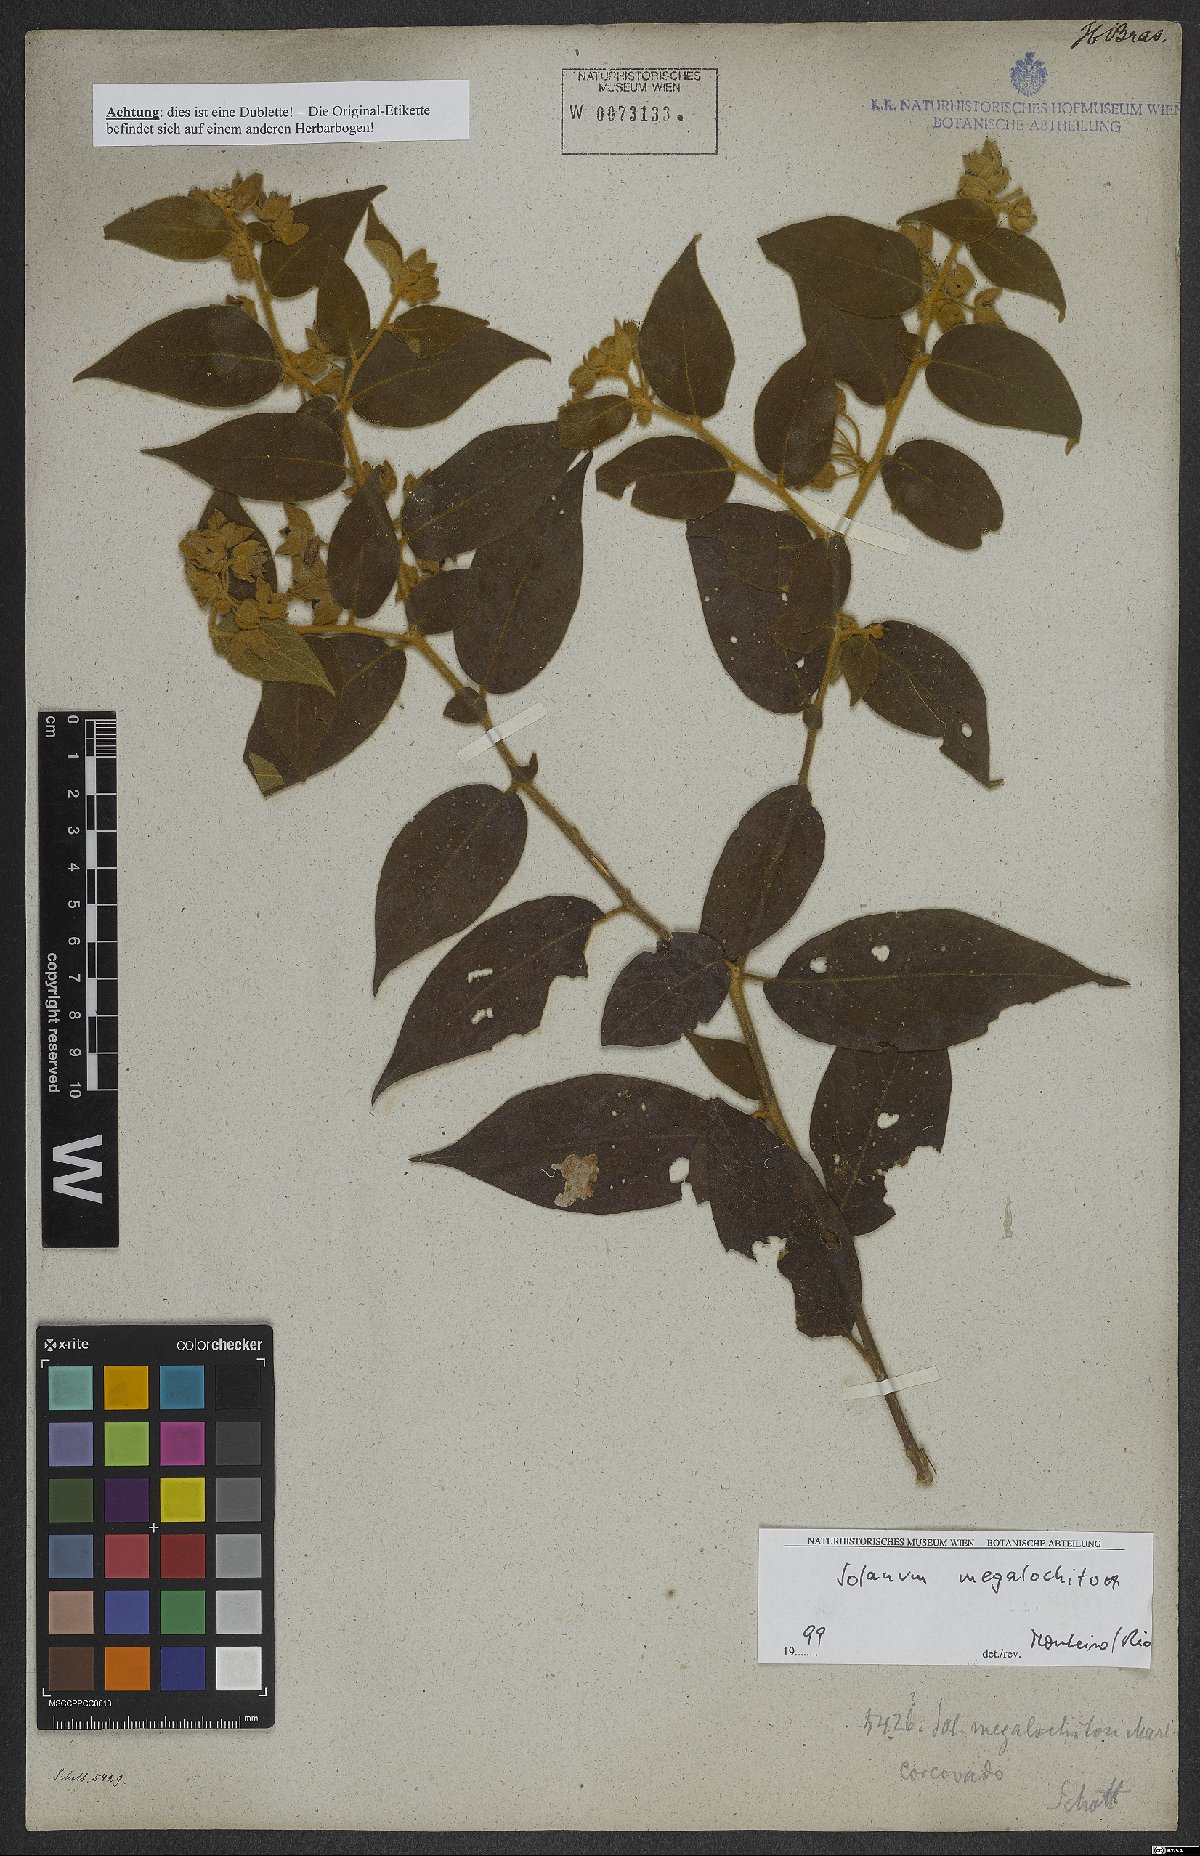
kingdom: Plantae
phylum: Tracheophyta
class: Magnoliopsida
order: Solanales
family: Solanaceae
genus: Solanum
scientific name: Solanum megalochiton
